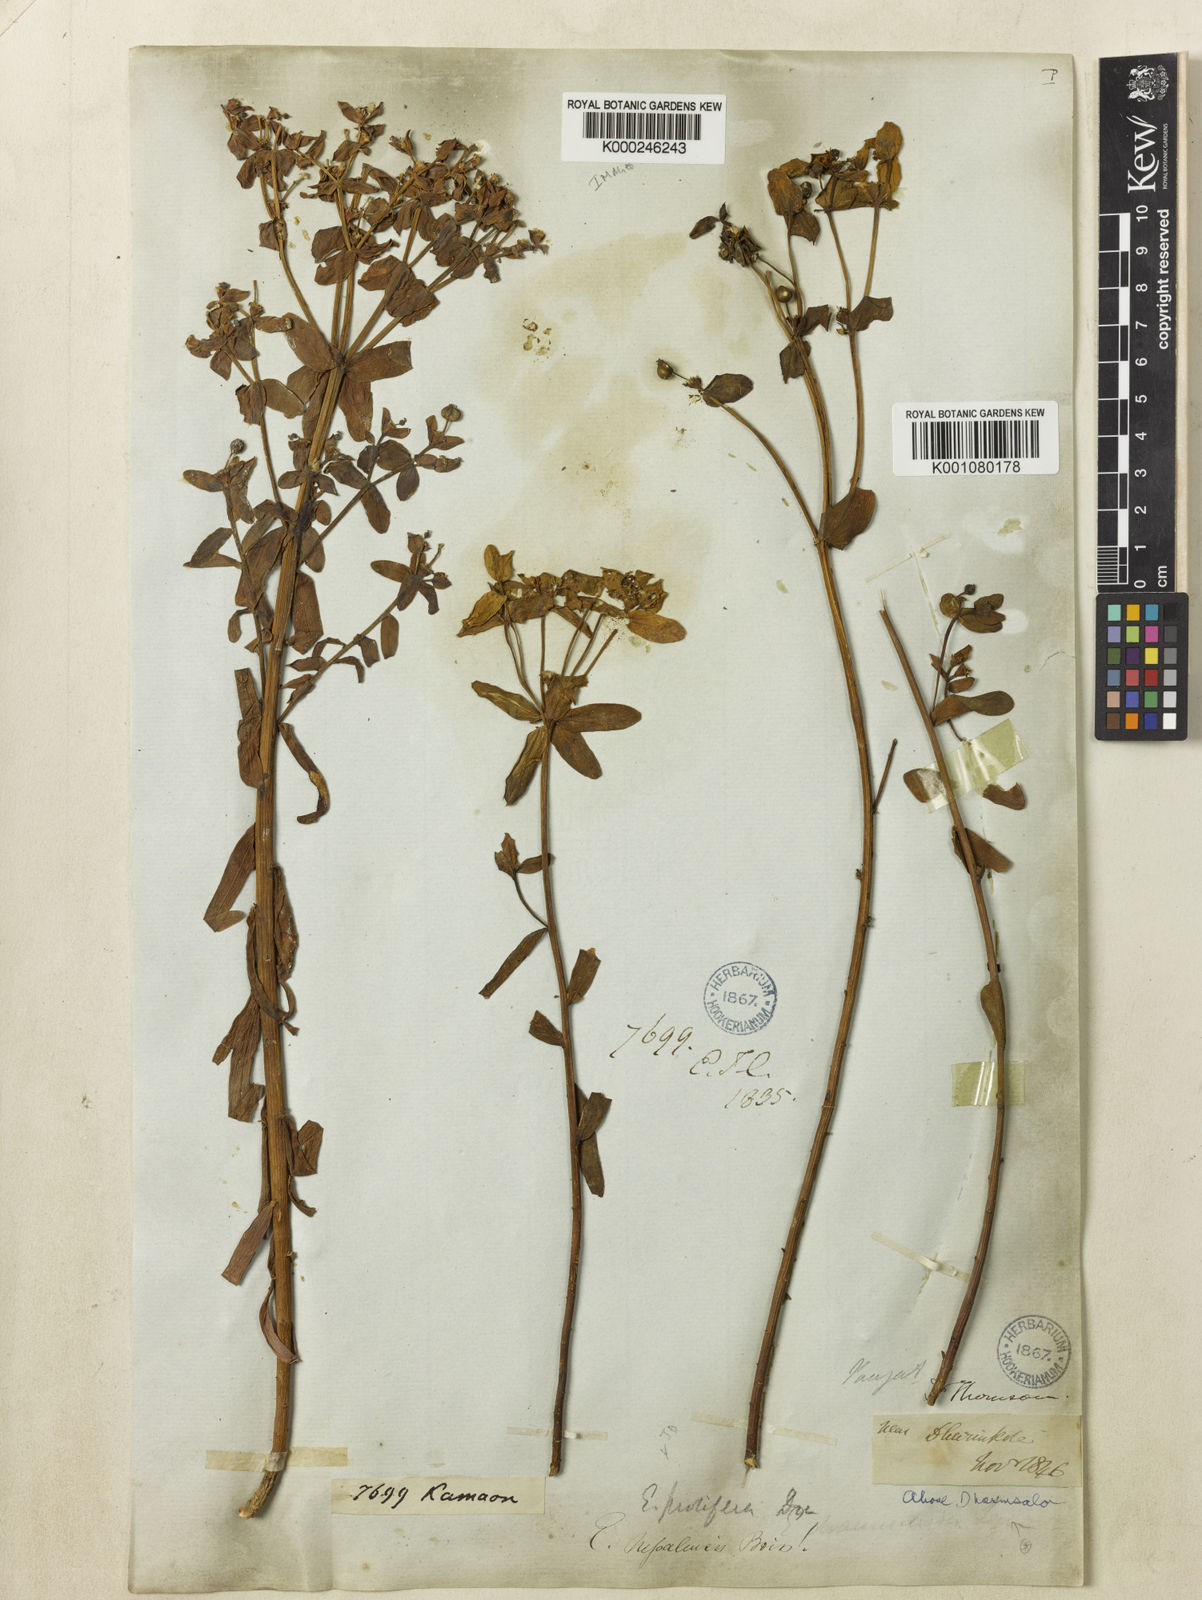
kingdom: Plantae
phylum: Tracheophyta
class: Magnoliopsida
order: Malpighiales
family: Euphorbiaceae
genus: Euphorbia
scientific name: Euphorbia obovata
